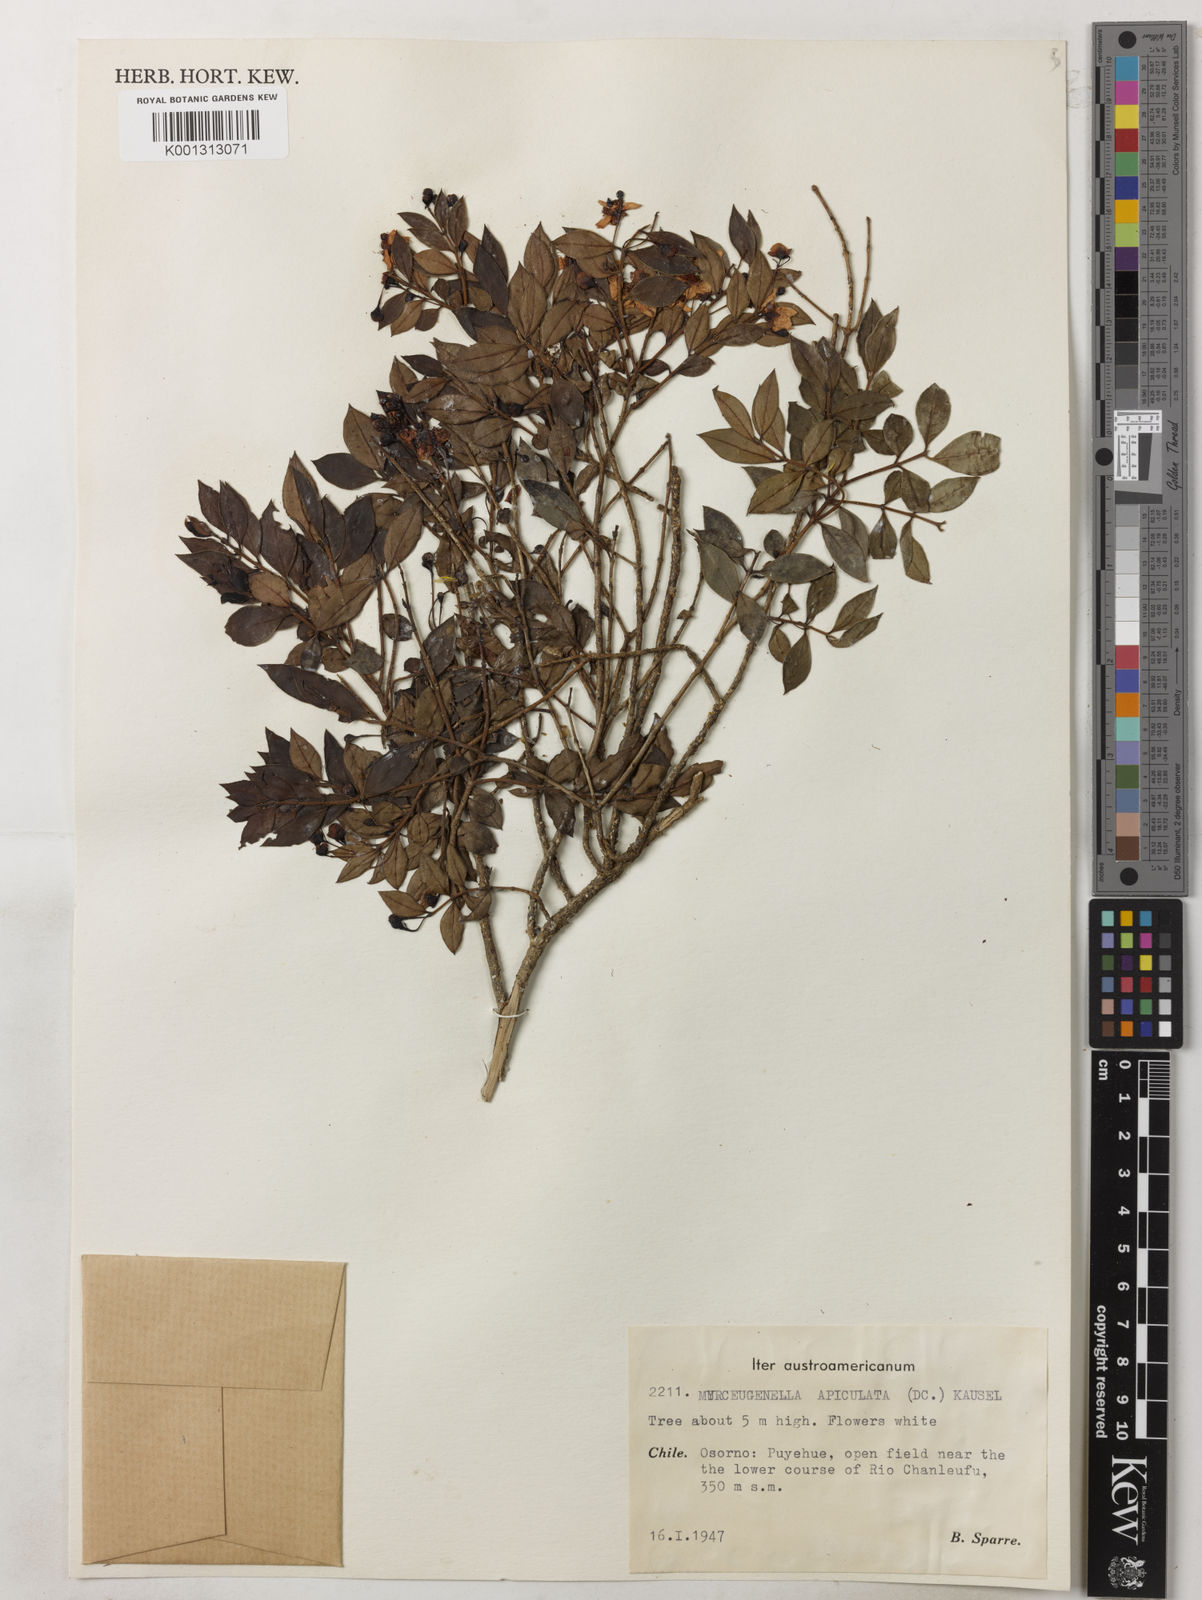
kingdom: Plantae
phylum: Tracheophyta
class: Magnoliopsida
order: Myrtales
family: Myrtaceae
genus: Luma
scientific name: Luma apiculata
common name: Chilean myrtle
